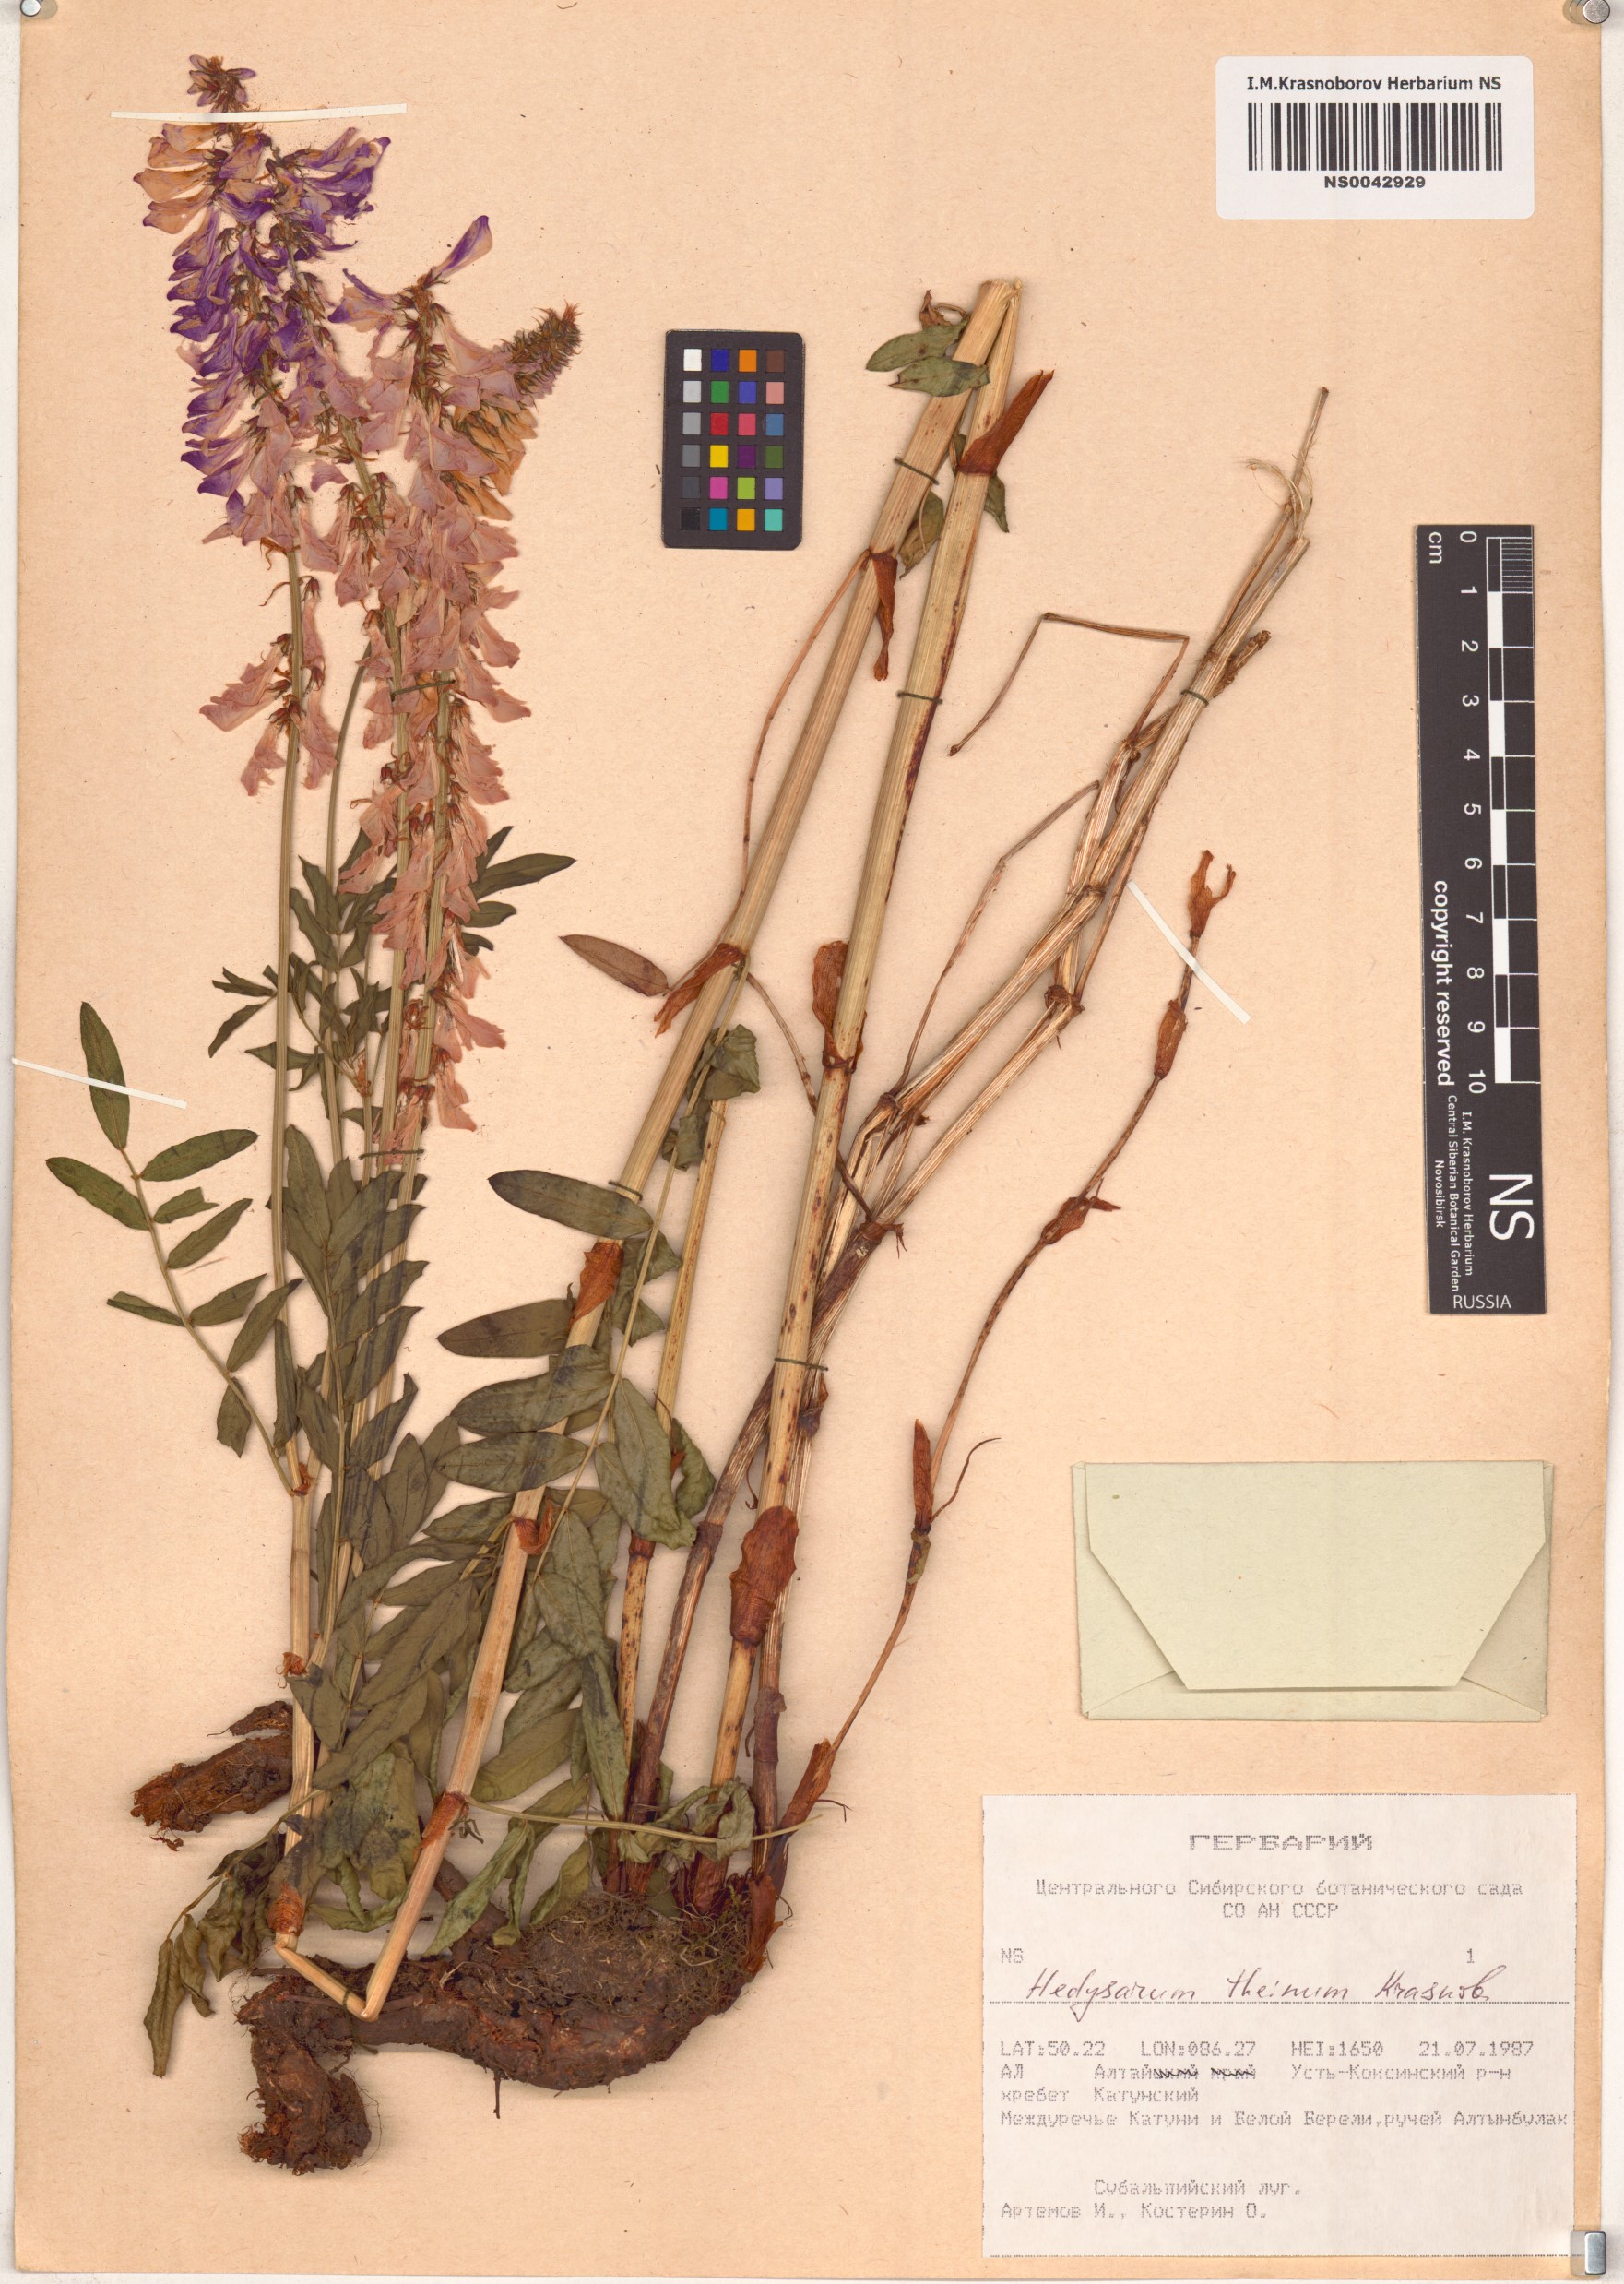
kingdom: Plantae
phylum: Tracheophyta
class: Magnoliopsida
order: Fabales
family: Fabaceae
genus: Hedysarum
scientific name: Hedysarum theinum
